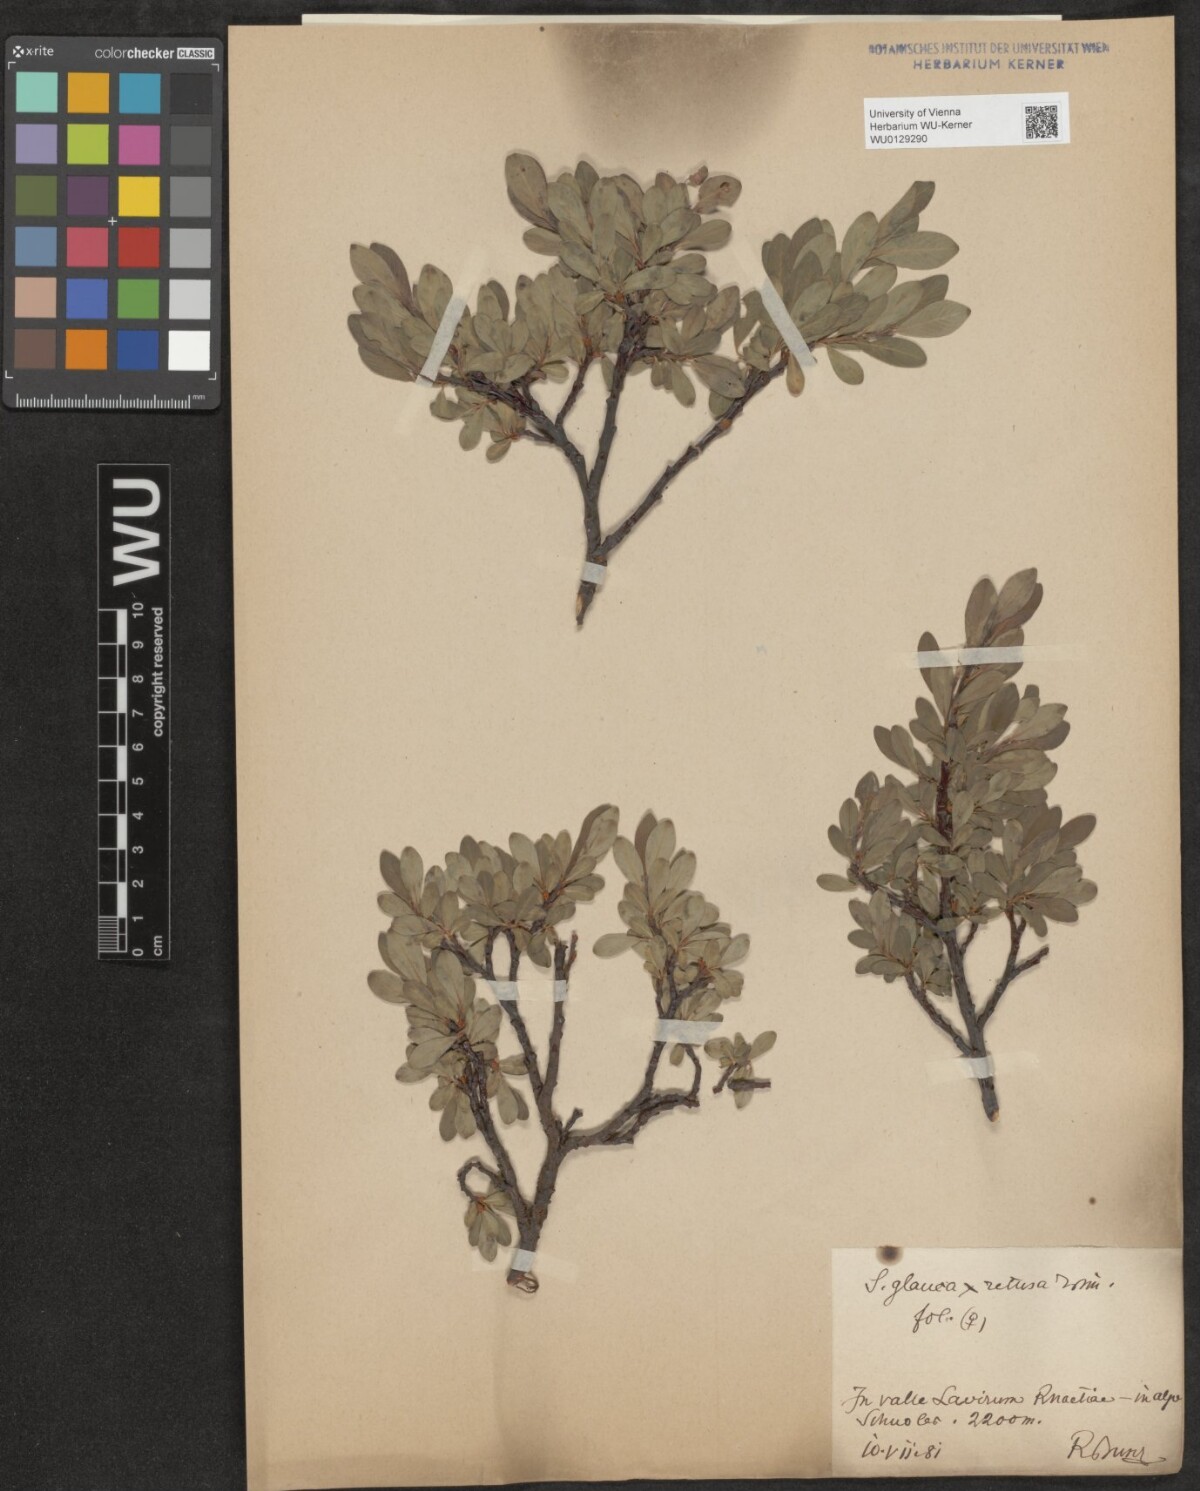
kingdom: Plantae
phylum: Tracheophyta
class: Magnoliopsida
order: Malpighiales
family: Salicaceae
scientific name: Salicaceae
